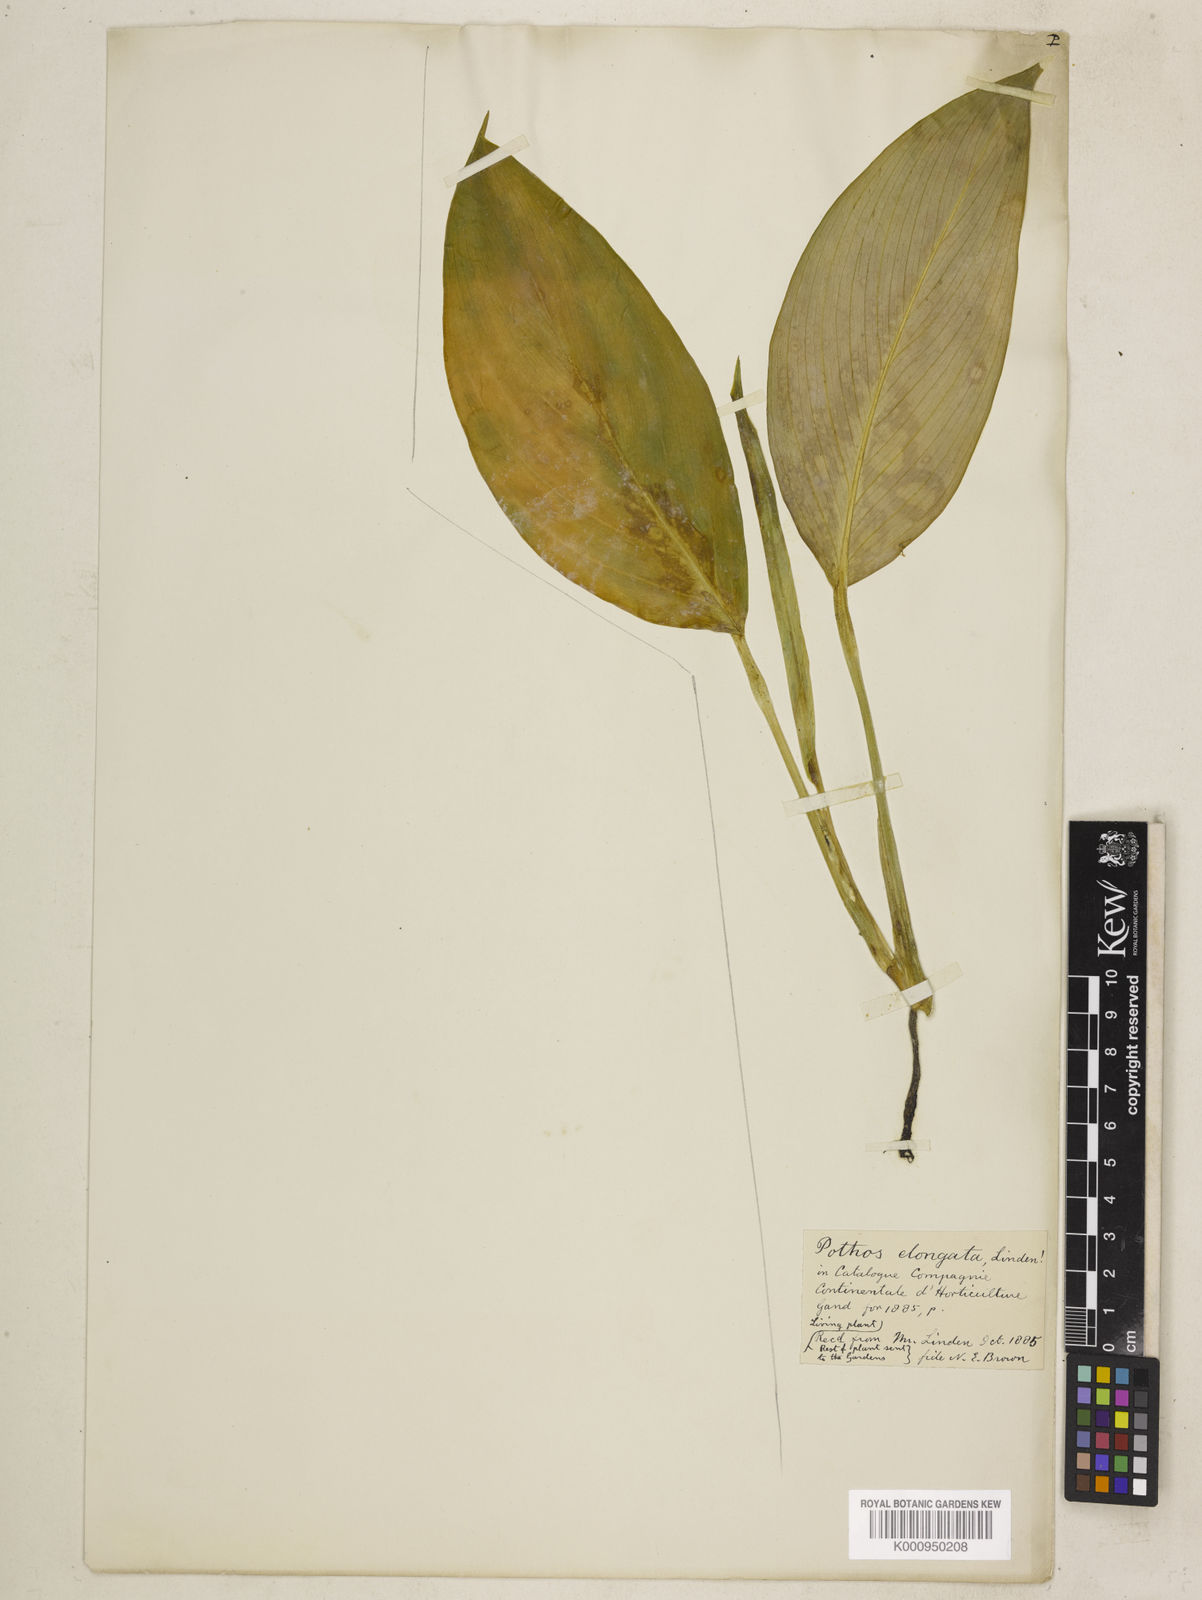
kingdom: Plantae
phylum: Tracheophyta
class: Liliopsida
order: Alismatales
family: Araceae
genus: Pothos
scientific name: Pothos
